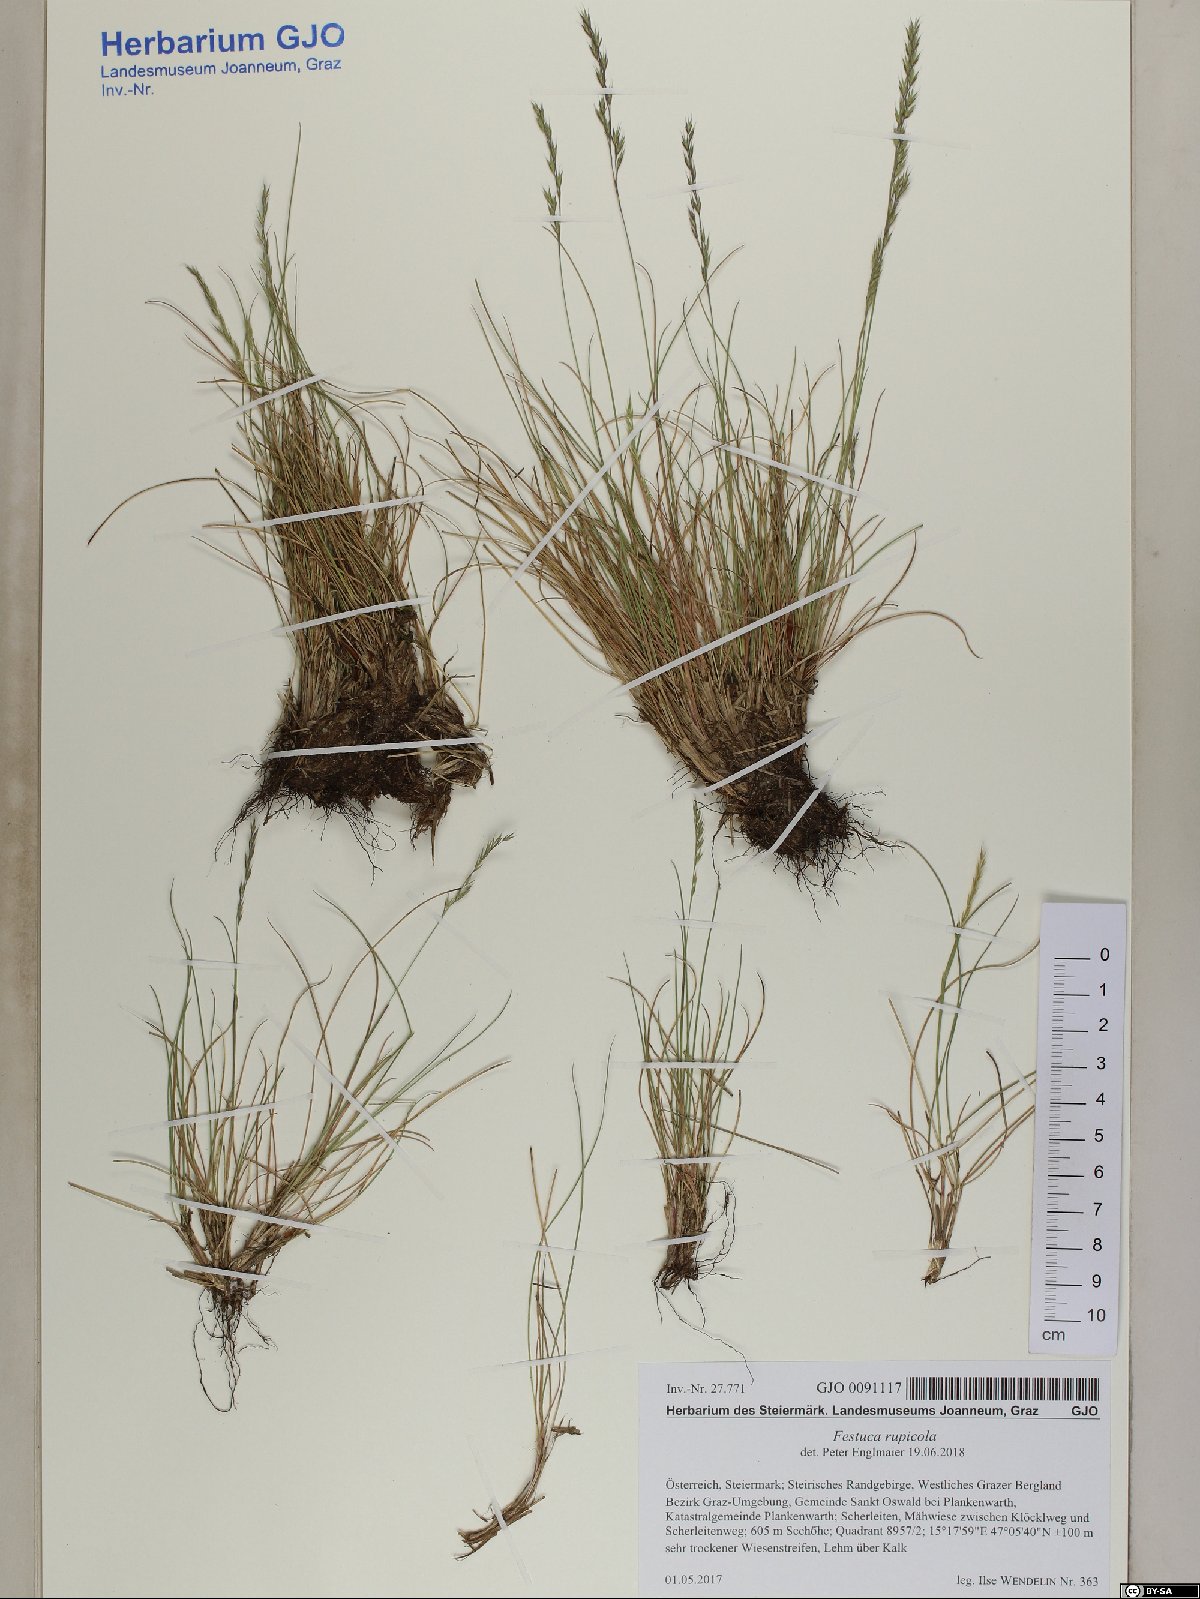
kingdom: Plantae
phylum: Tracheophyta
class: Liliopsida
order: Poales
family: Poaceae
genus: Festuca
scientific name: Festuca rupicola
